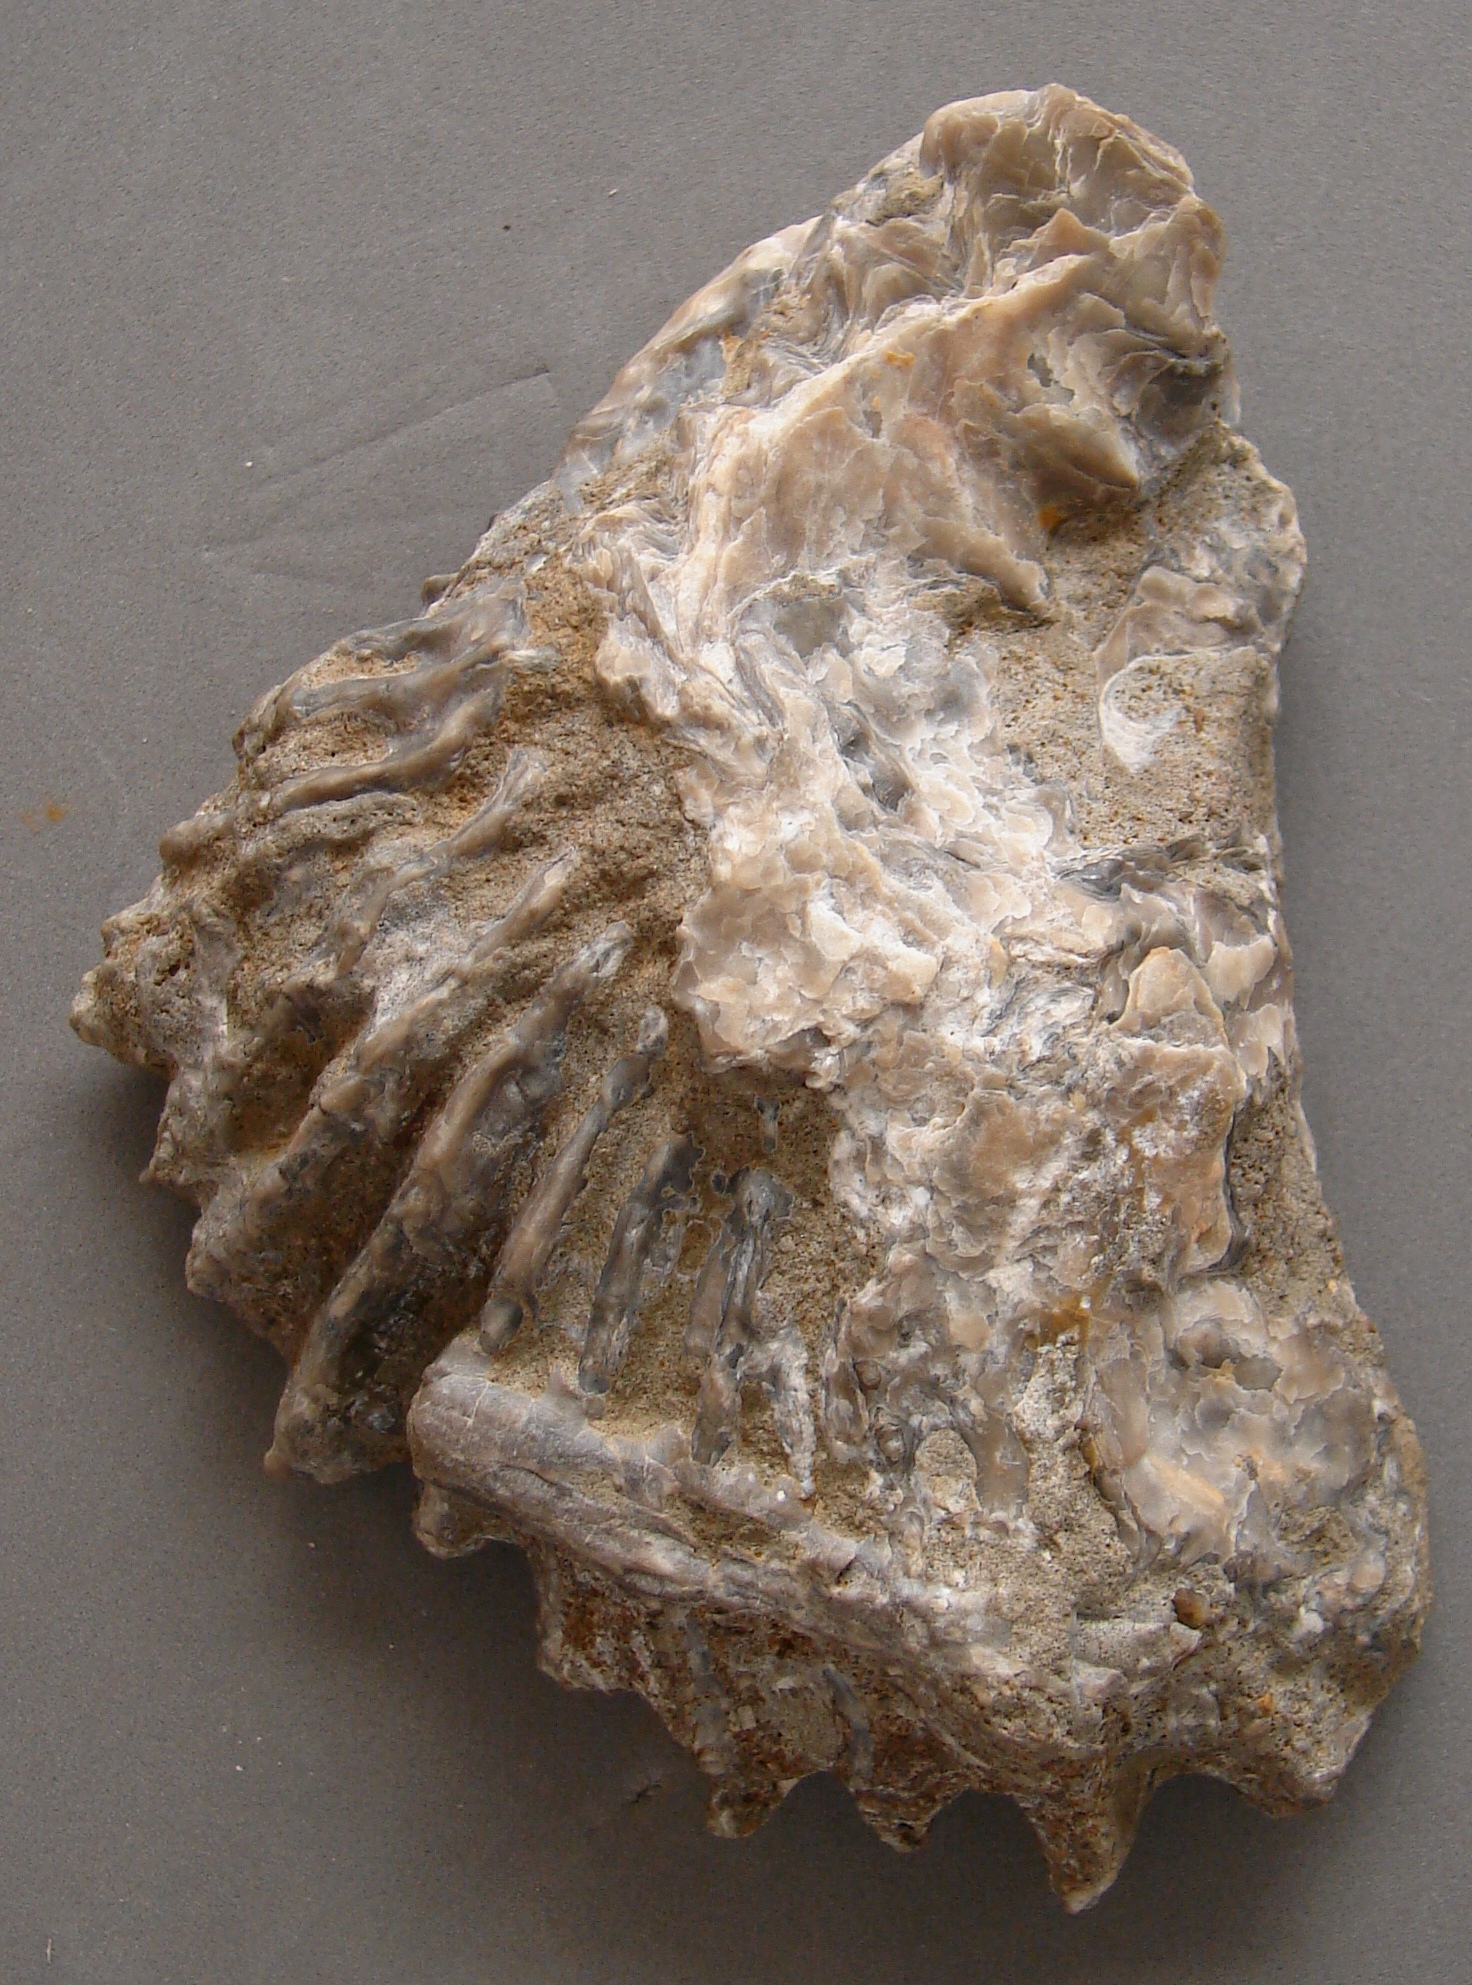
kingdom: Animalia
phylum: Mollusca
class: Bivalvia
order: Ostreida
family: Ostreidae
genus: Ostrea
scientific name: Ostrea marshii
